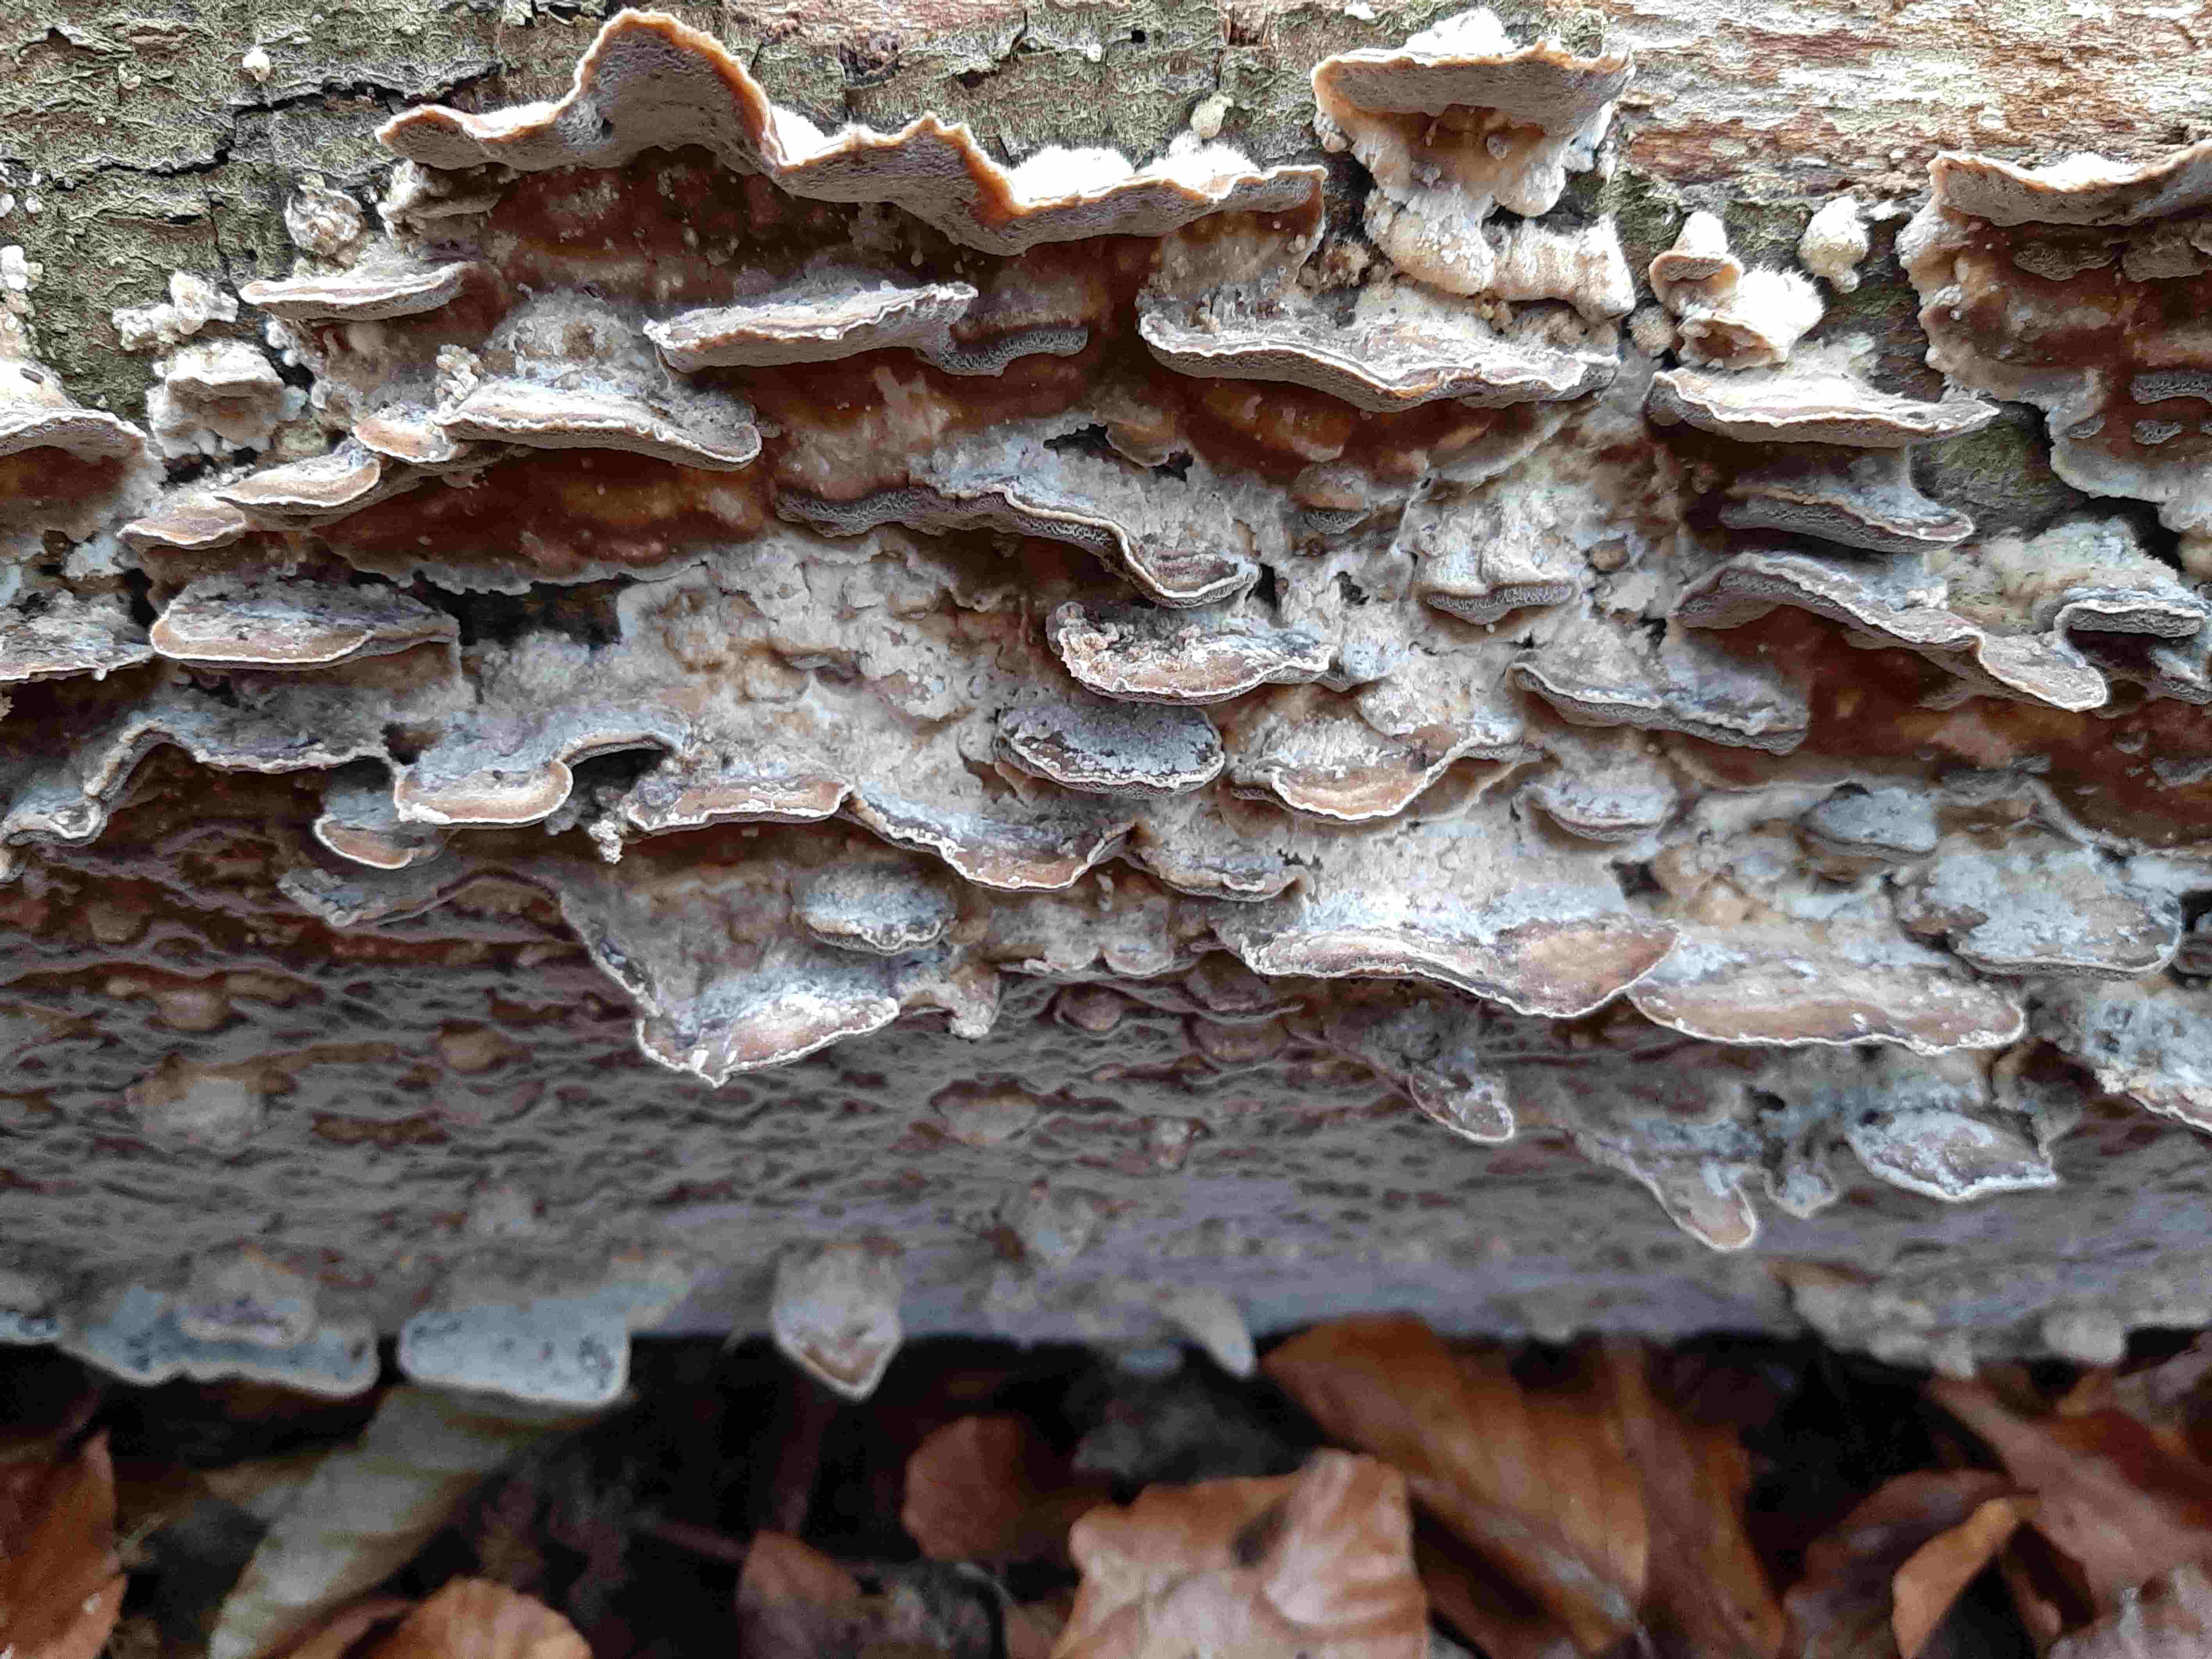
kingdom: Fungi
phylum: Basidiomycota
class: Agaricomycetes
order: Polyporales
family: Phanerochaetaceae
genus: Bjerkandera
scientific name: Bjerkandera adusta
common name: sveden sodporesvamp
